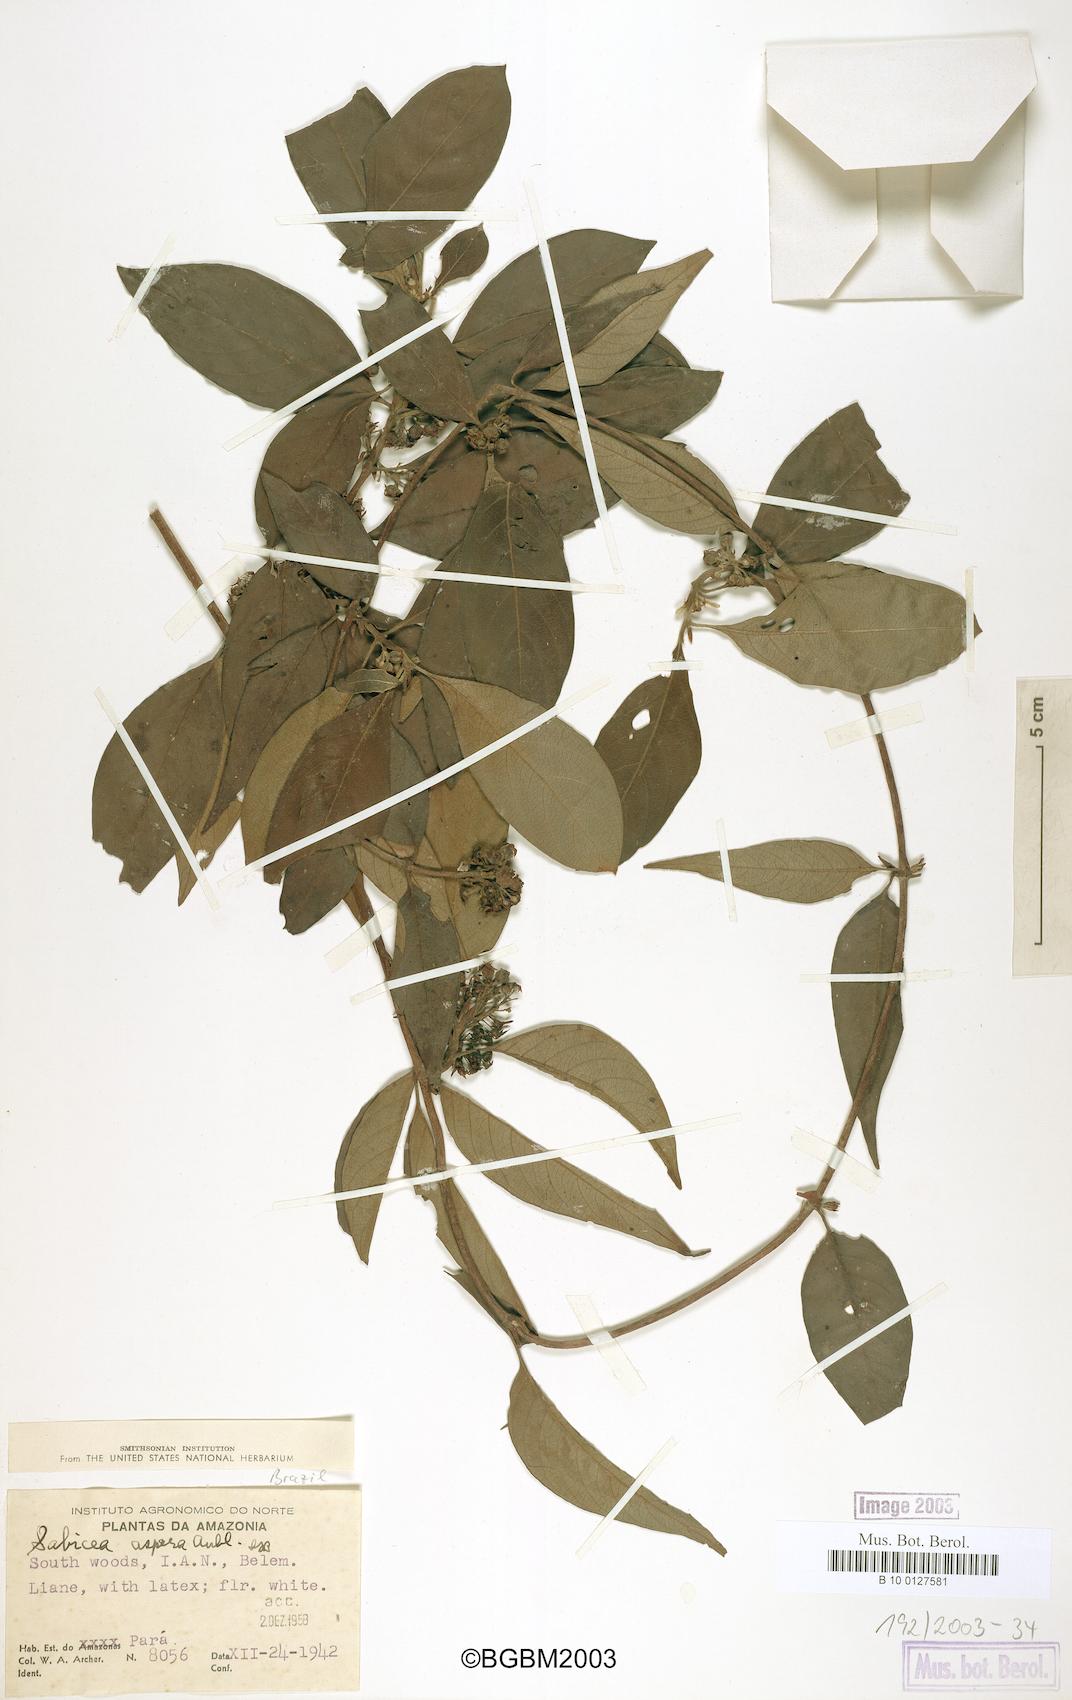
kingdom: Plantae
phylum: Tracheophyta
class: Magnoliopsida
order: Gentianales
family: Rubiaceae
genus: Sabicea
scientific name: Sabicea aspera
